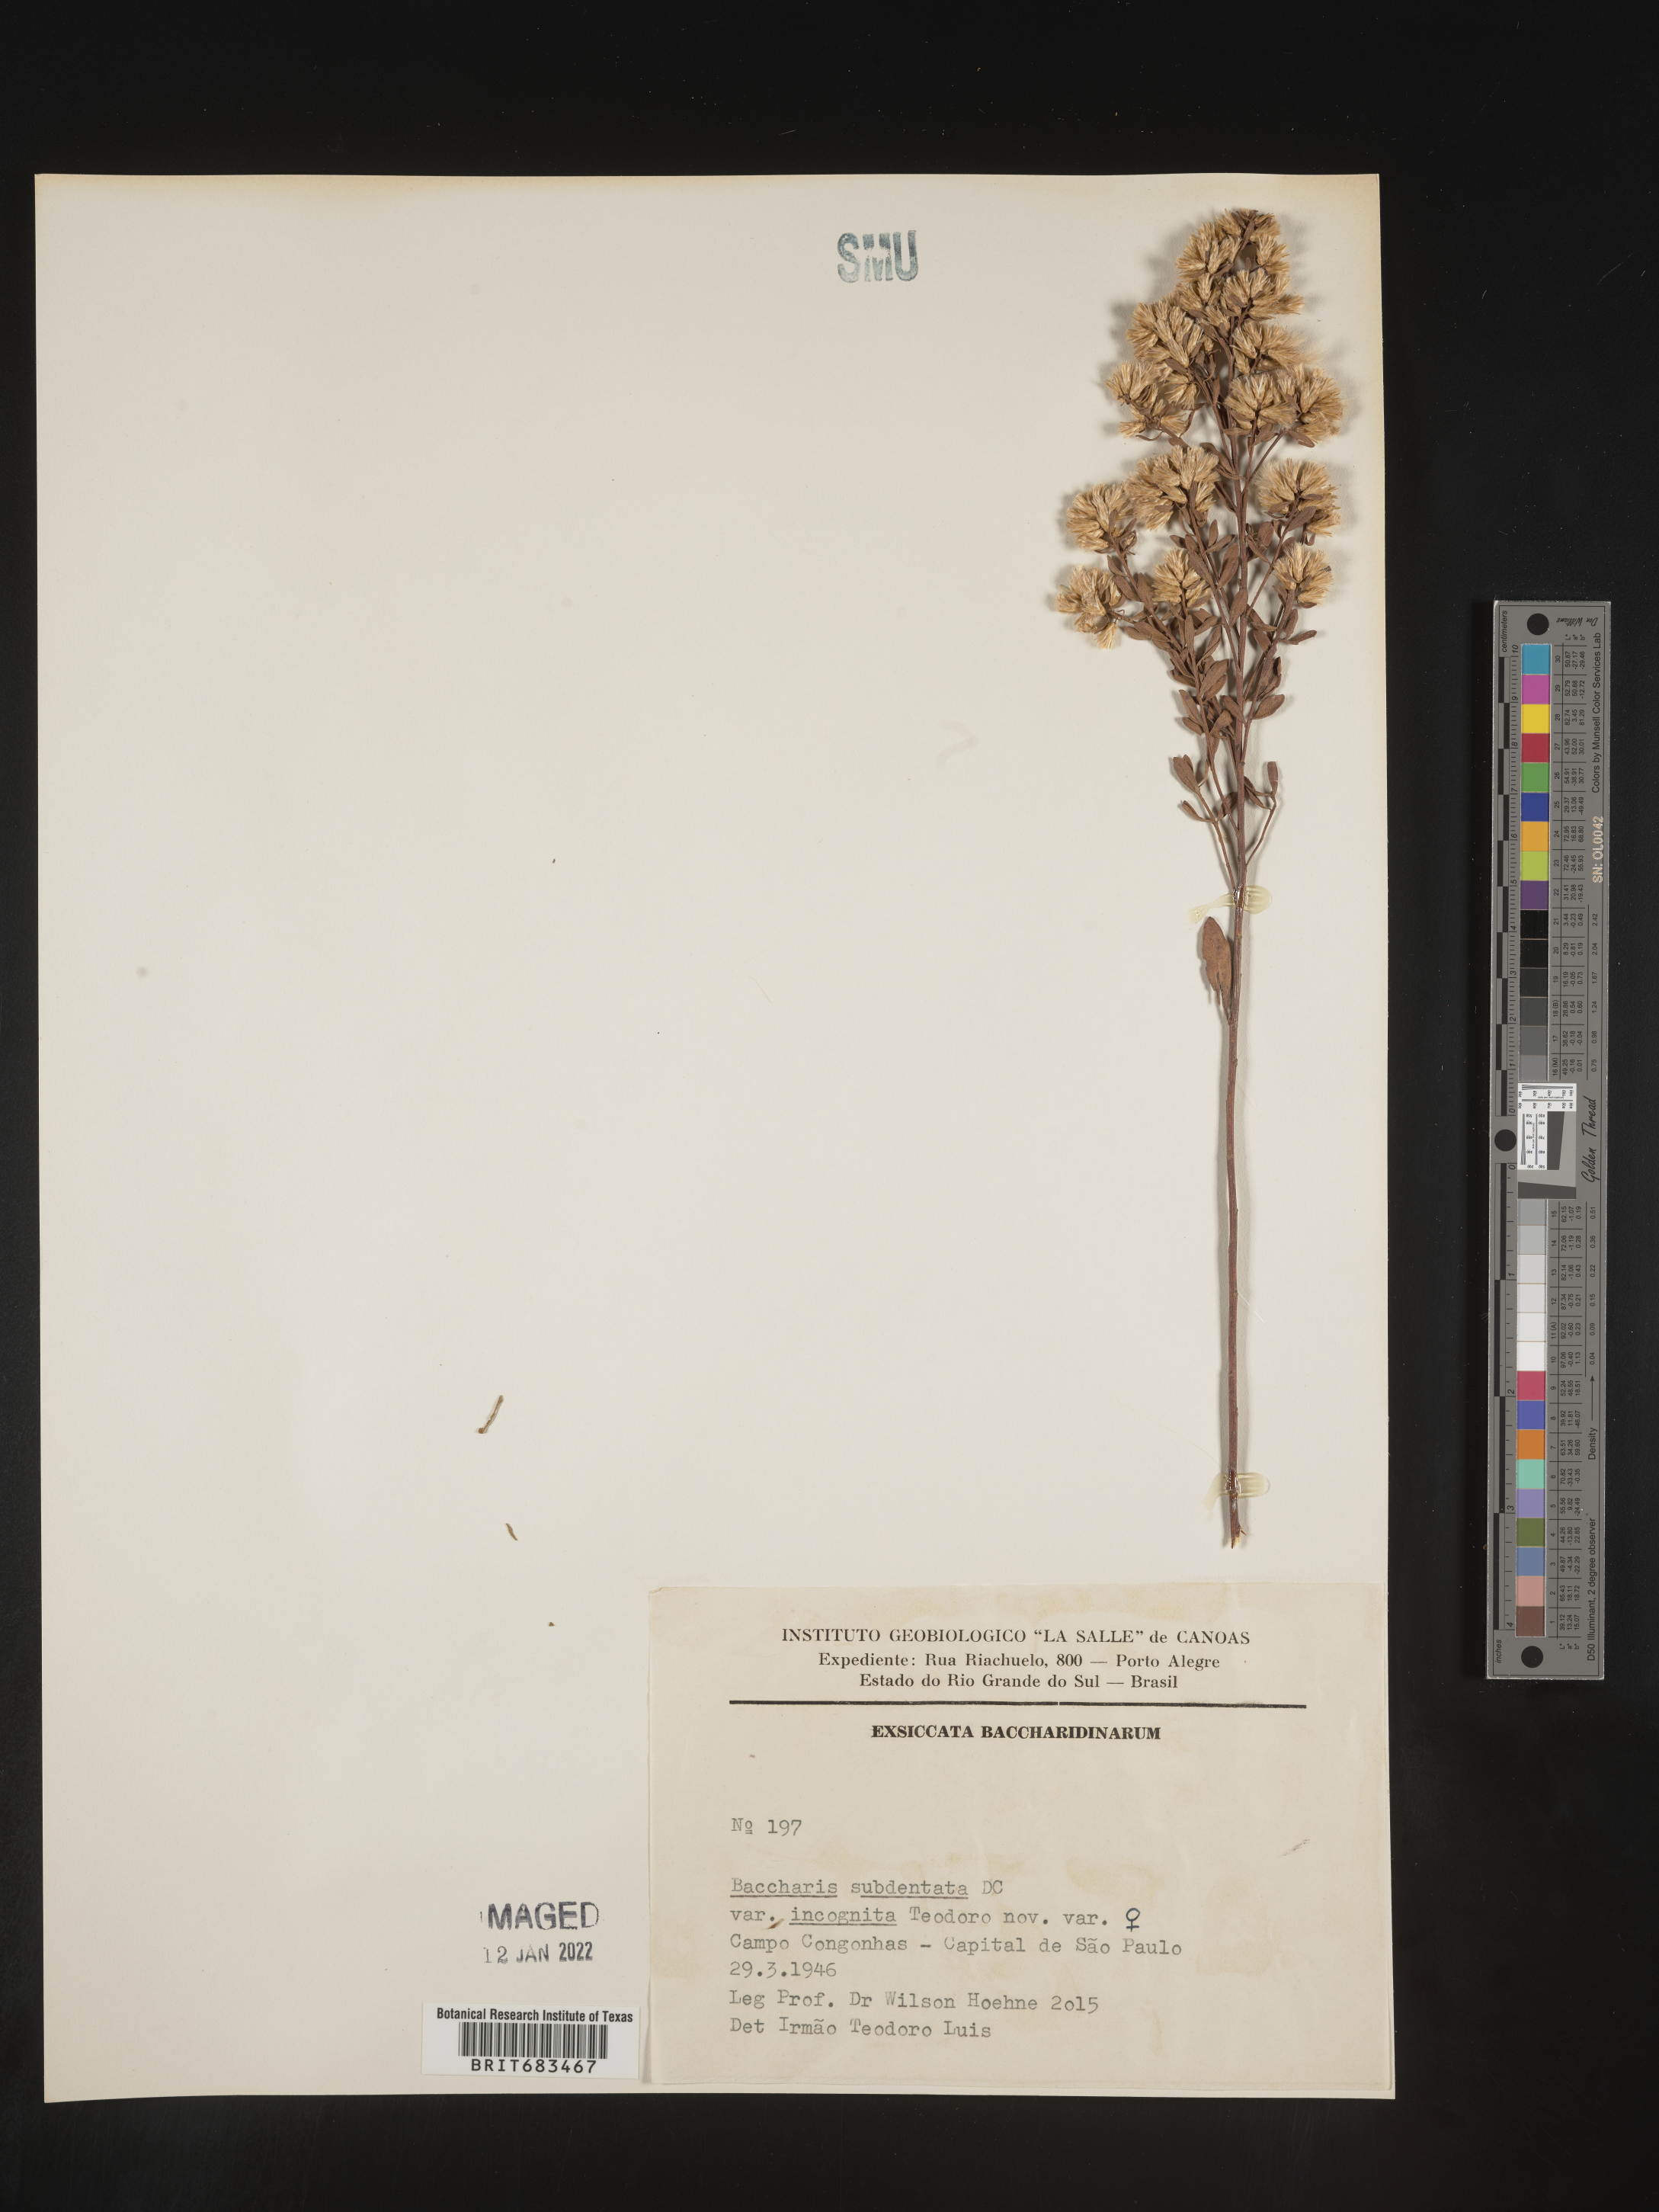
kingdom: Plantae
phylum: Tracheophyta
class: Magnoliopsida
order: Asterales
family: Asteraceae
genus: Baccharis
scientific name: Baccharis
